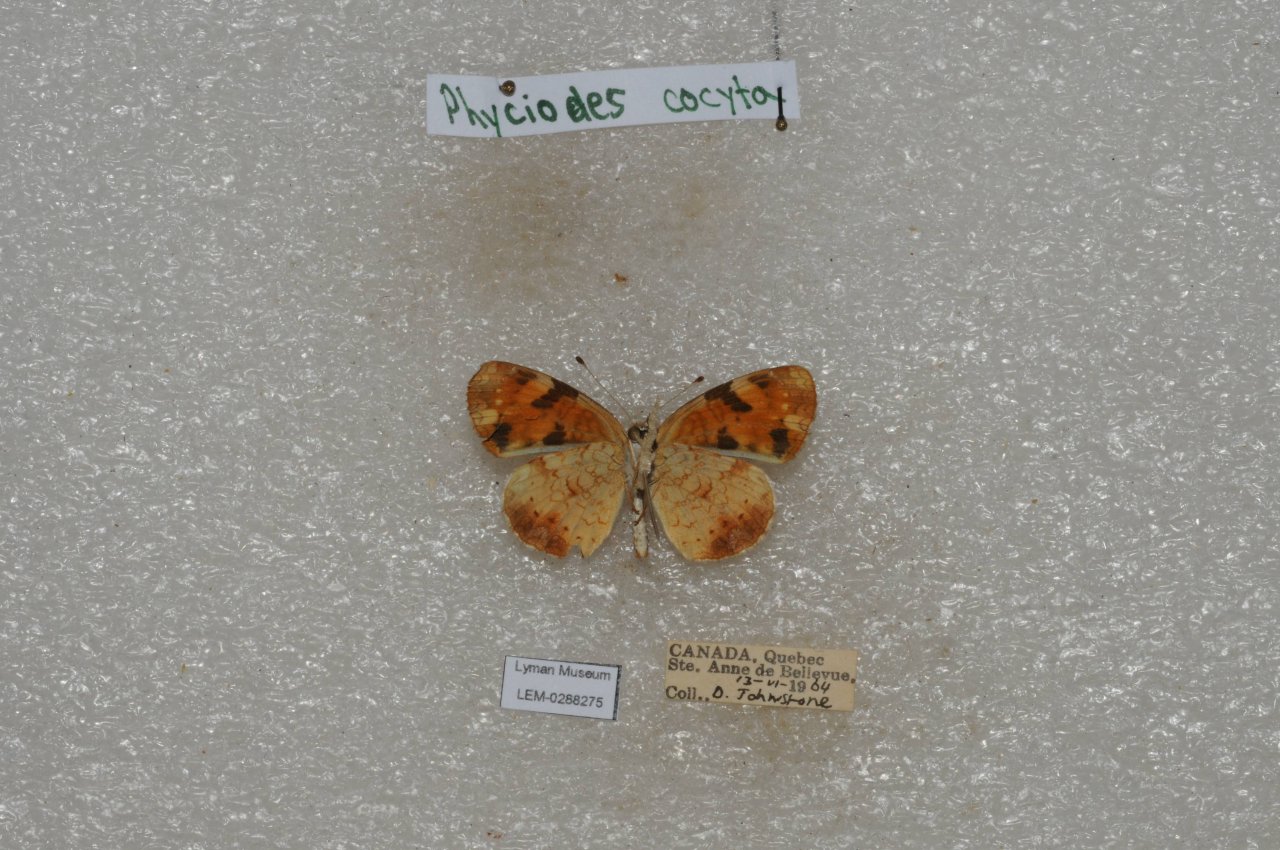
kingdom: Animalia
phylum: Arthropoda
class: Insecta
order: Lepidoptera
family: Nymphalidae
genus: Phyciodes
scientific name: Phyciodes tharos
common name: Northern Crescent
